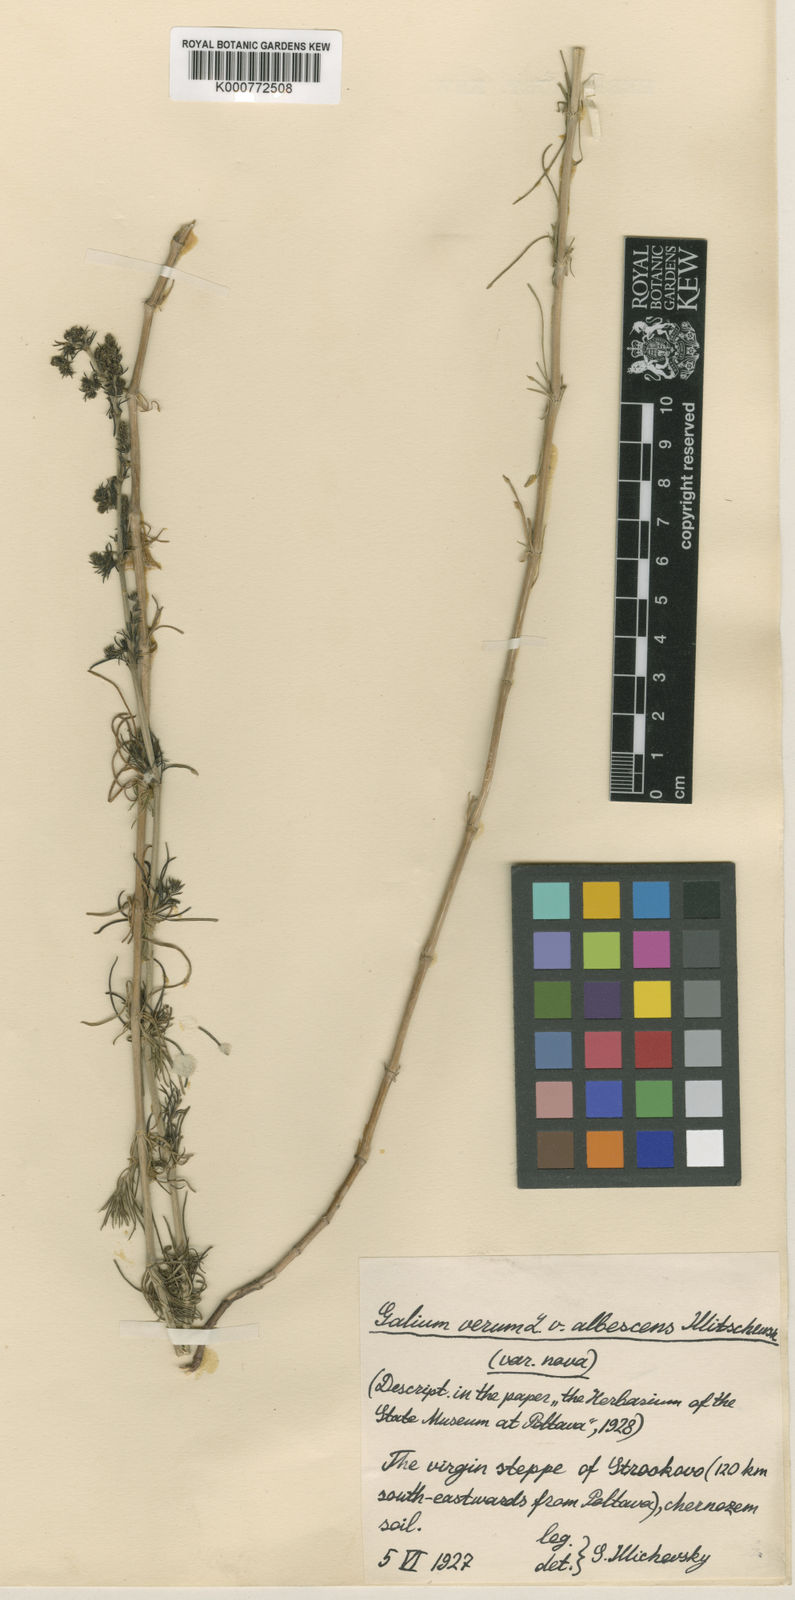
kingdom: Plantae
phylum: Tracheophyta
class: Magnoliopsida
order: Gentianales
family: Rubiaceae
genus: Galium
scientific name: Galium verum
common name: Lady's bedstraw
